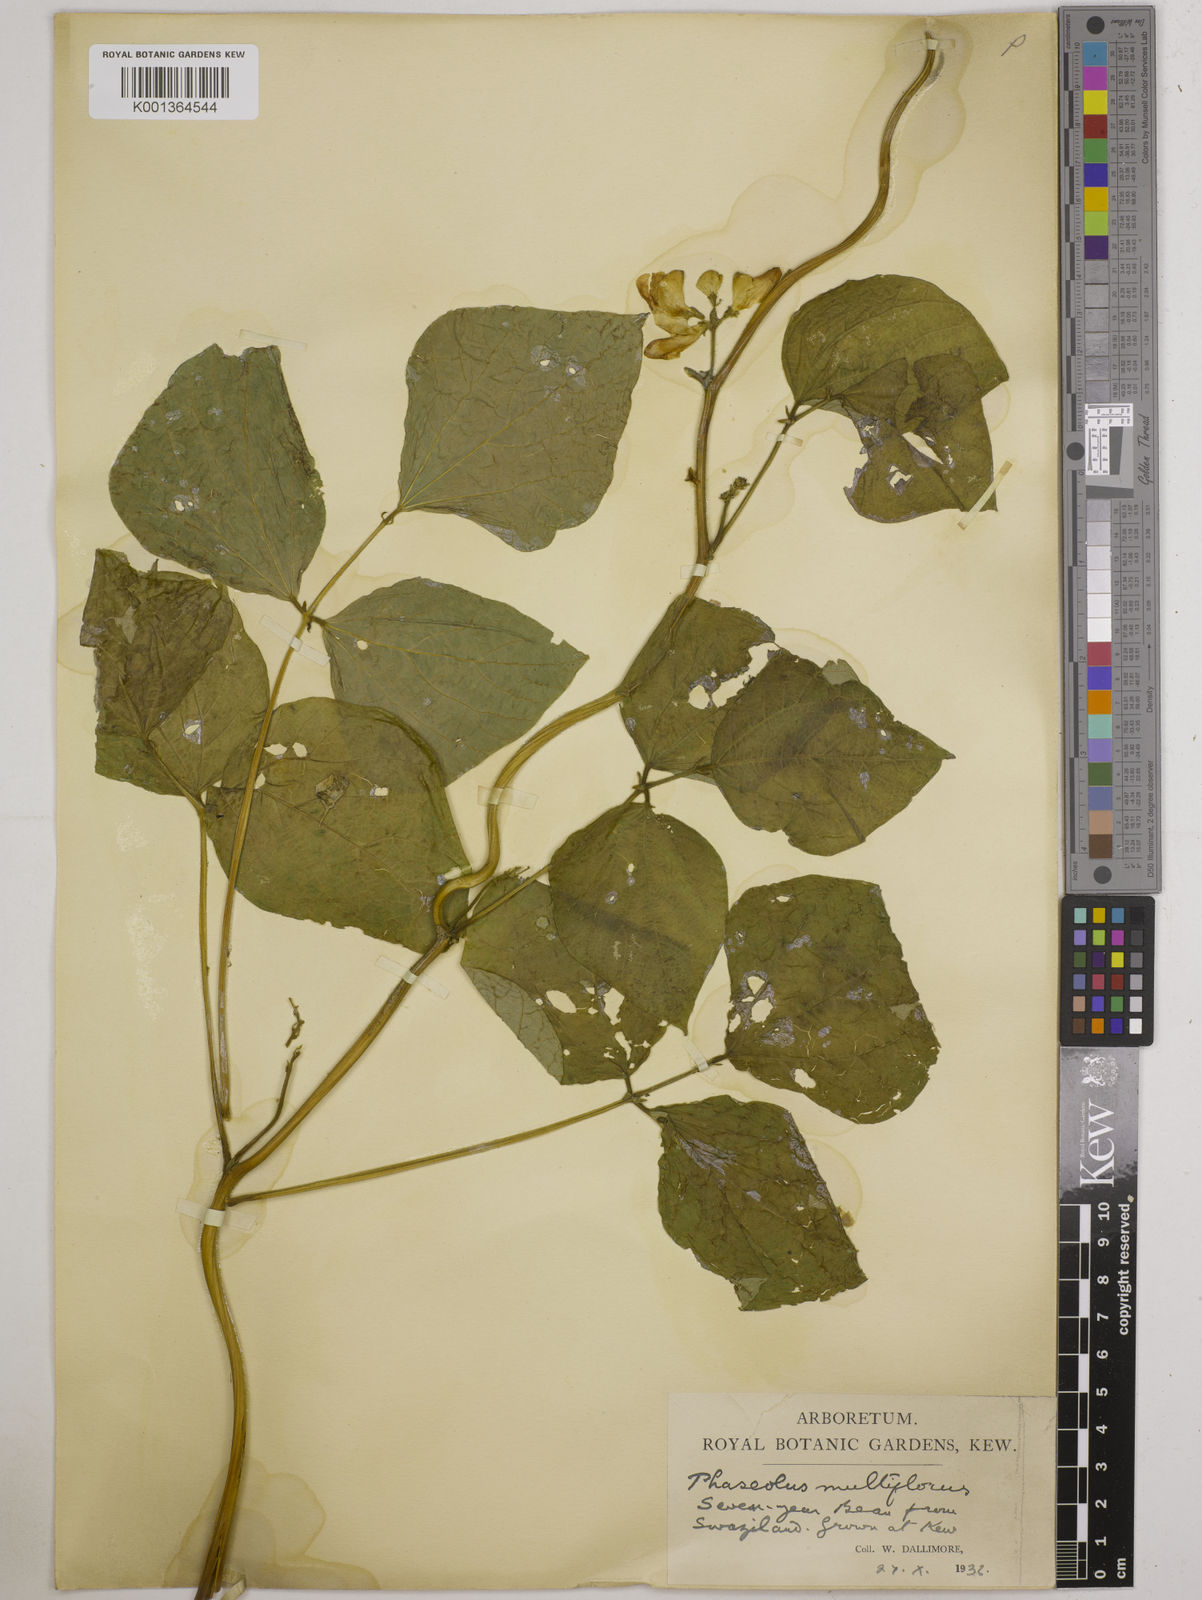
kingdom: Plantae
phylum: Tracheophyta
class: Magnoliopsida
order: Fabales
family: Fabaceae
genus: Phaseolus
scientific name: Phaseolus
